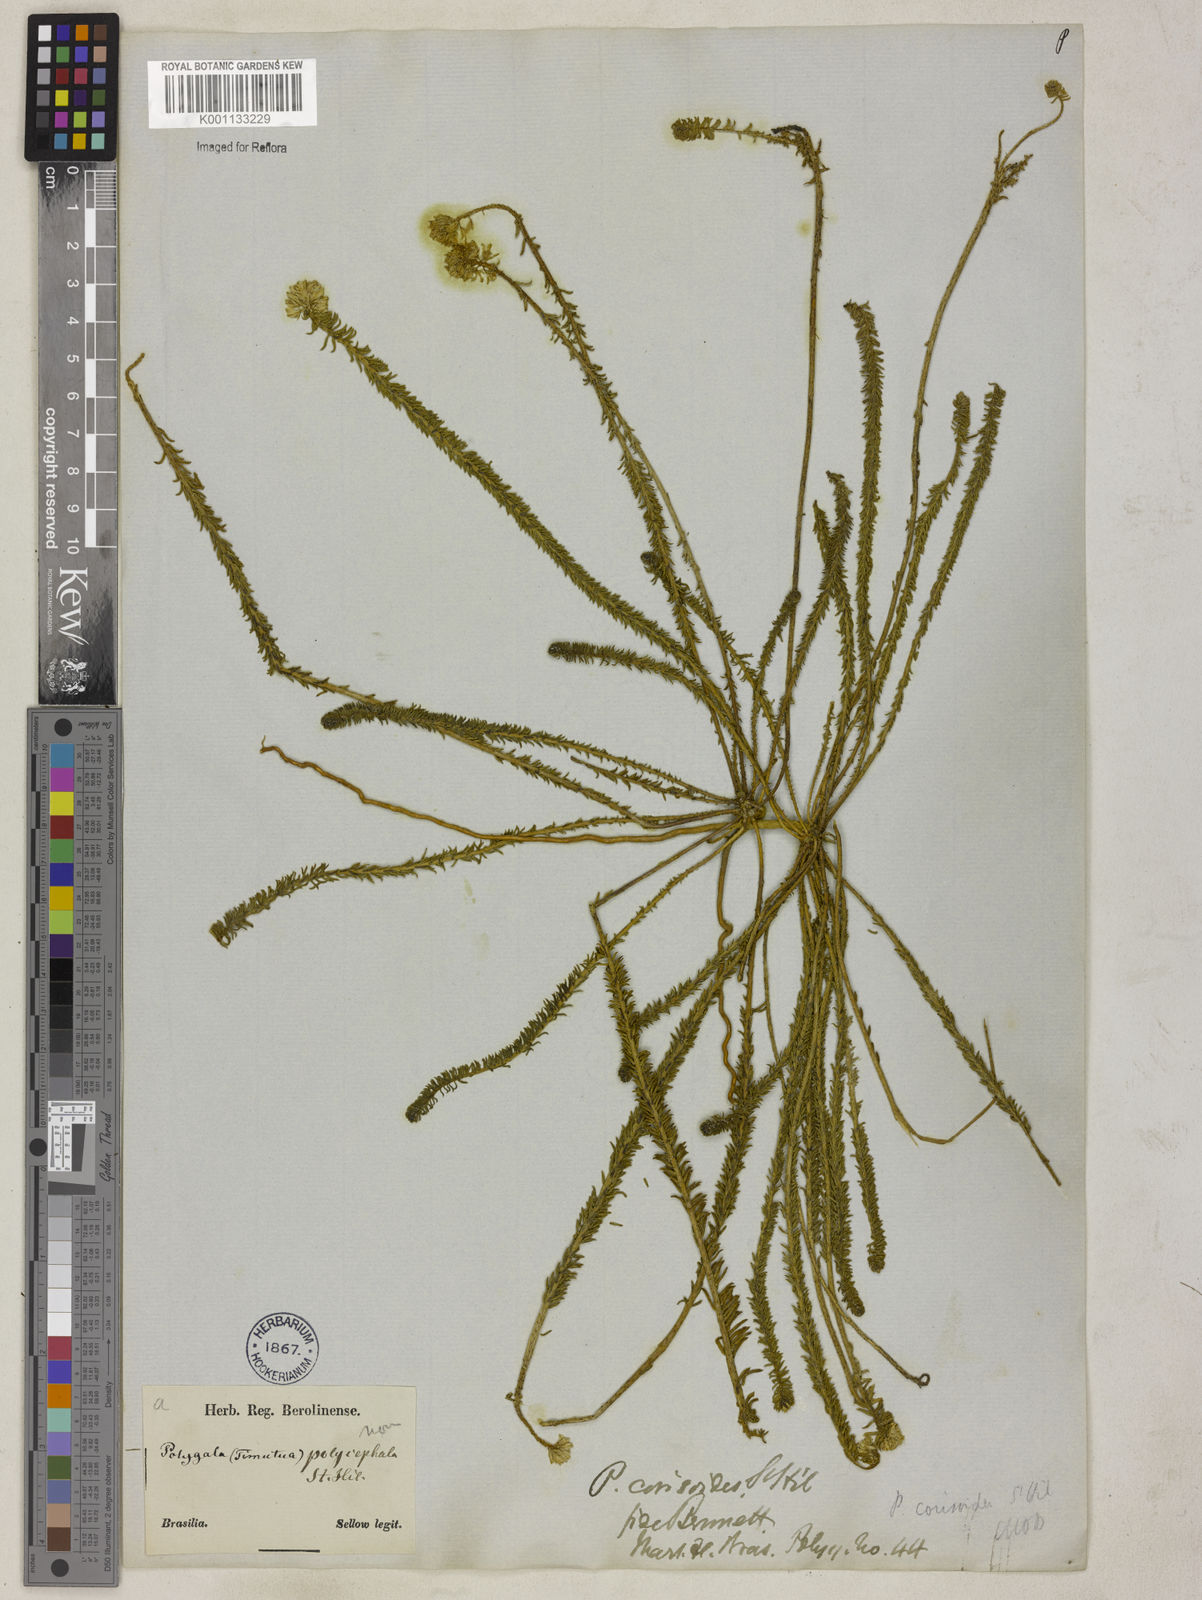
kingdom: Plantae
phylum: Tracheophyta
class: Magnoliopsida
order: Fabales
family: Polygalaceae
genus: Polygala
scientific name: Polygala cyparissias
